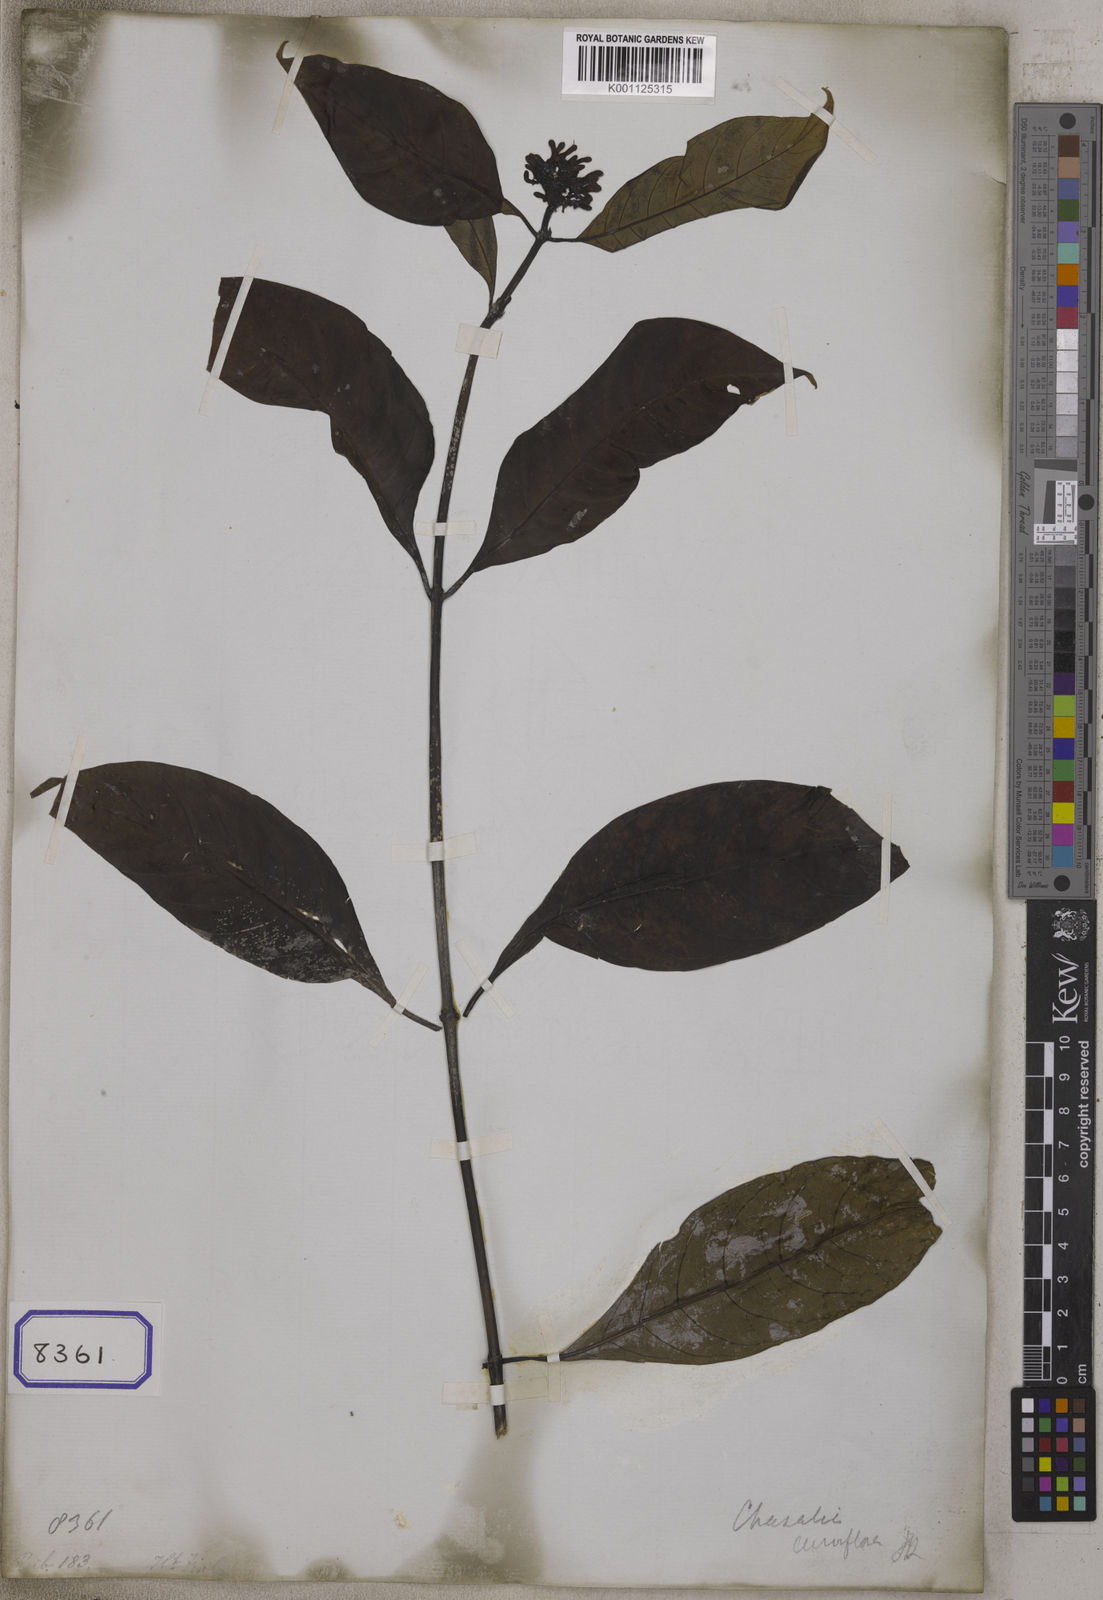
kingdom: Plantae
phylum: Tracheophyta
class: Magnoliopsida
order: Gentianales
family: Rubiaceae
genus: Psychotria
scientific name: Psychotria
